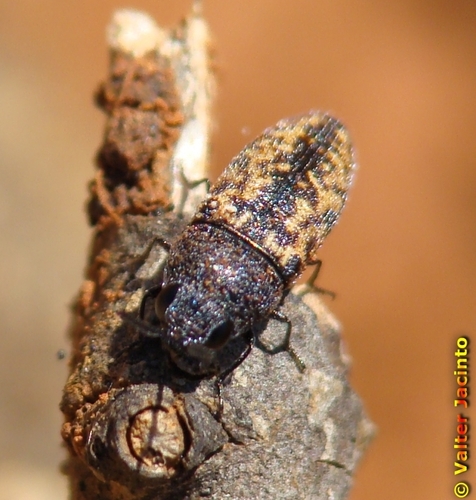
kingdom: Animalia
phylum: Arthropoda
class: Insecta
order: Coleoptera
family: Buprestidae
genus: Acmaeoderella
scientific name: Acmaeoderella adspersula
